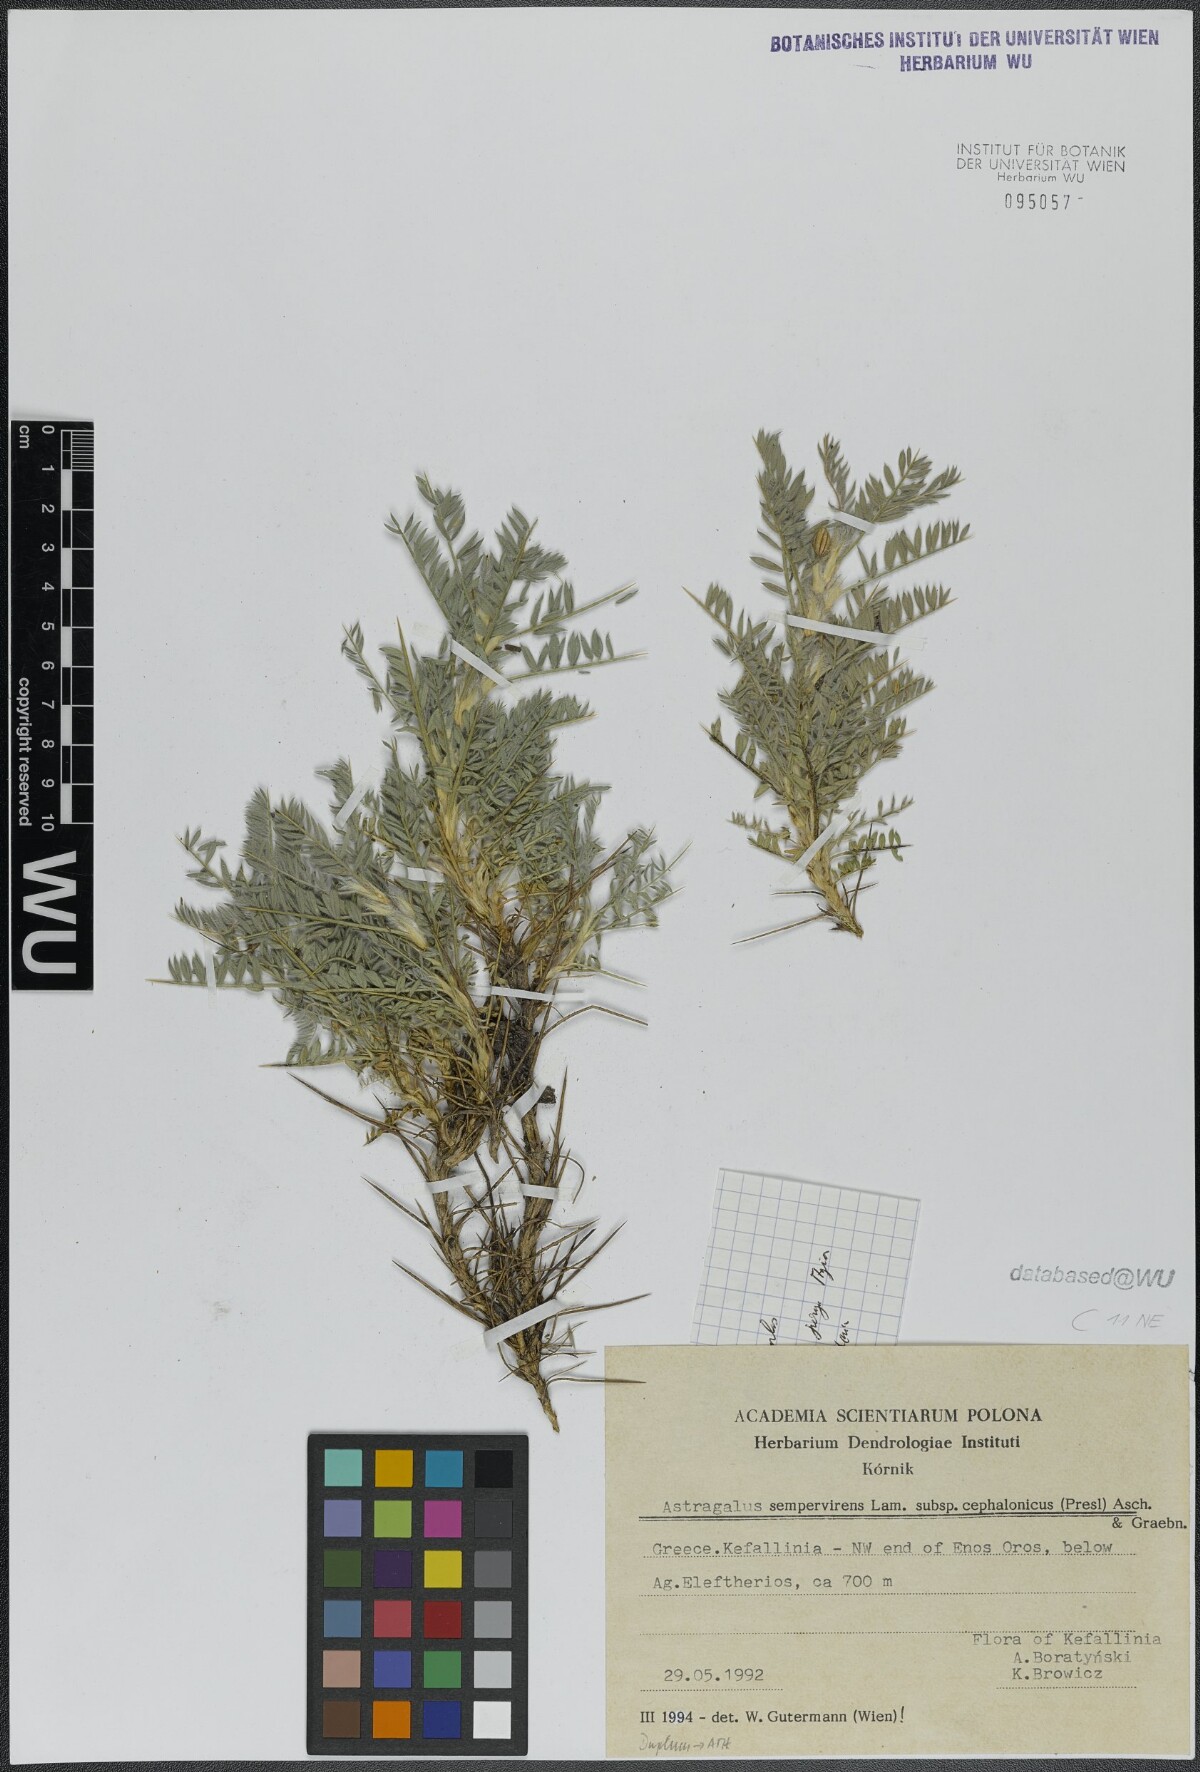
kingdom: Plantae
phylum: Tracheophyta
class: Magnoliopsida
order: Fabales
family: Fabaceae
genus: Astragalus
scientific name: Astragalus sempervirens
